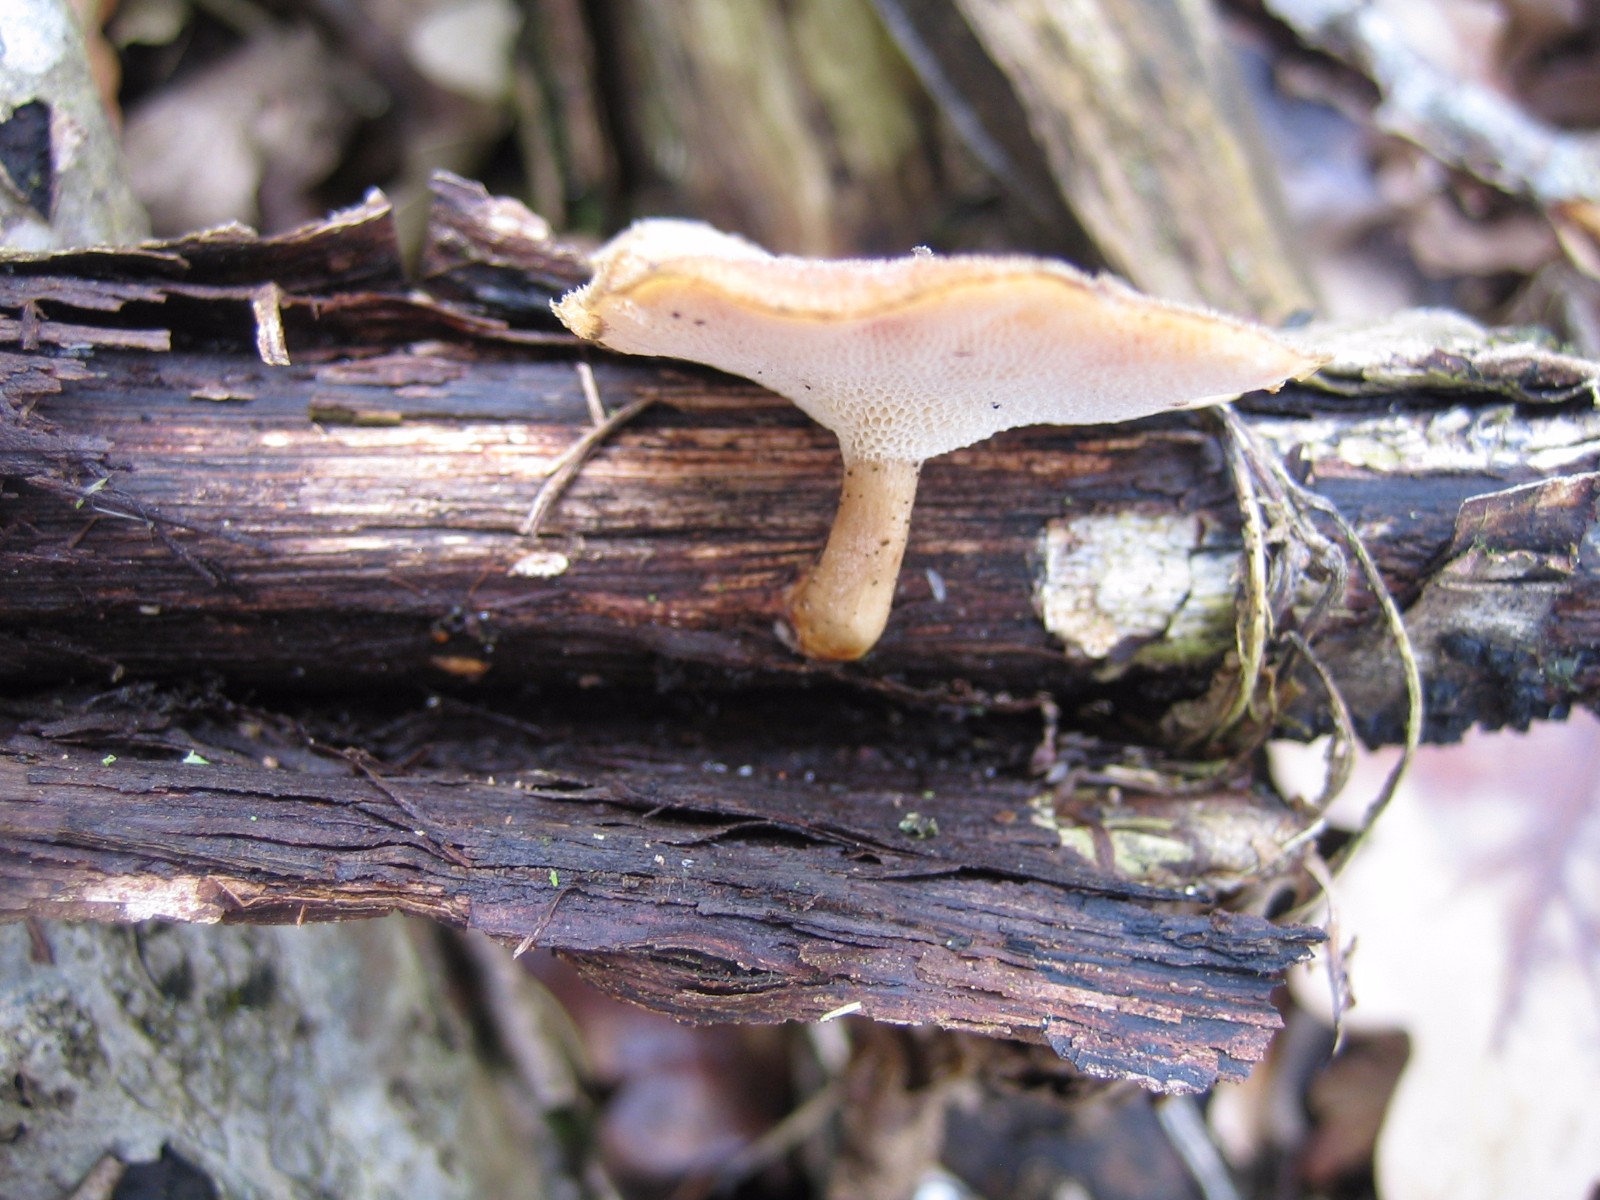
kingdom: Fungi
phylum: Basidiomycota
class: Agaricomycetes
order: Polyporales
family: Polyporaceae
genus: Lentinus
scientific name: Lentinus brumalis
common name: vinter-stilkporesvamp
